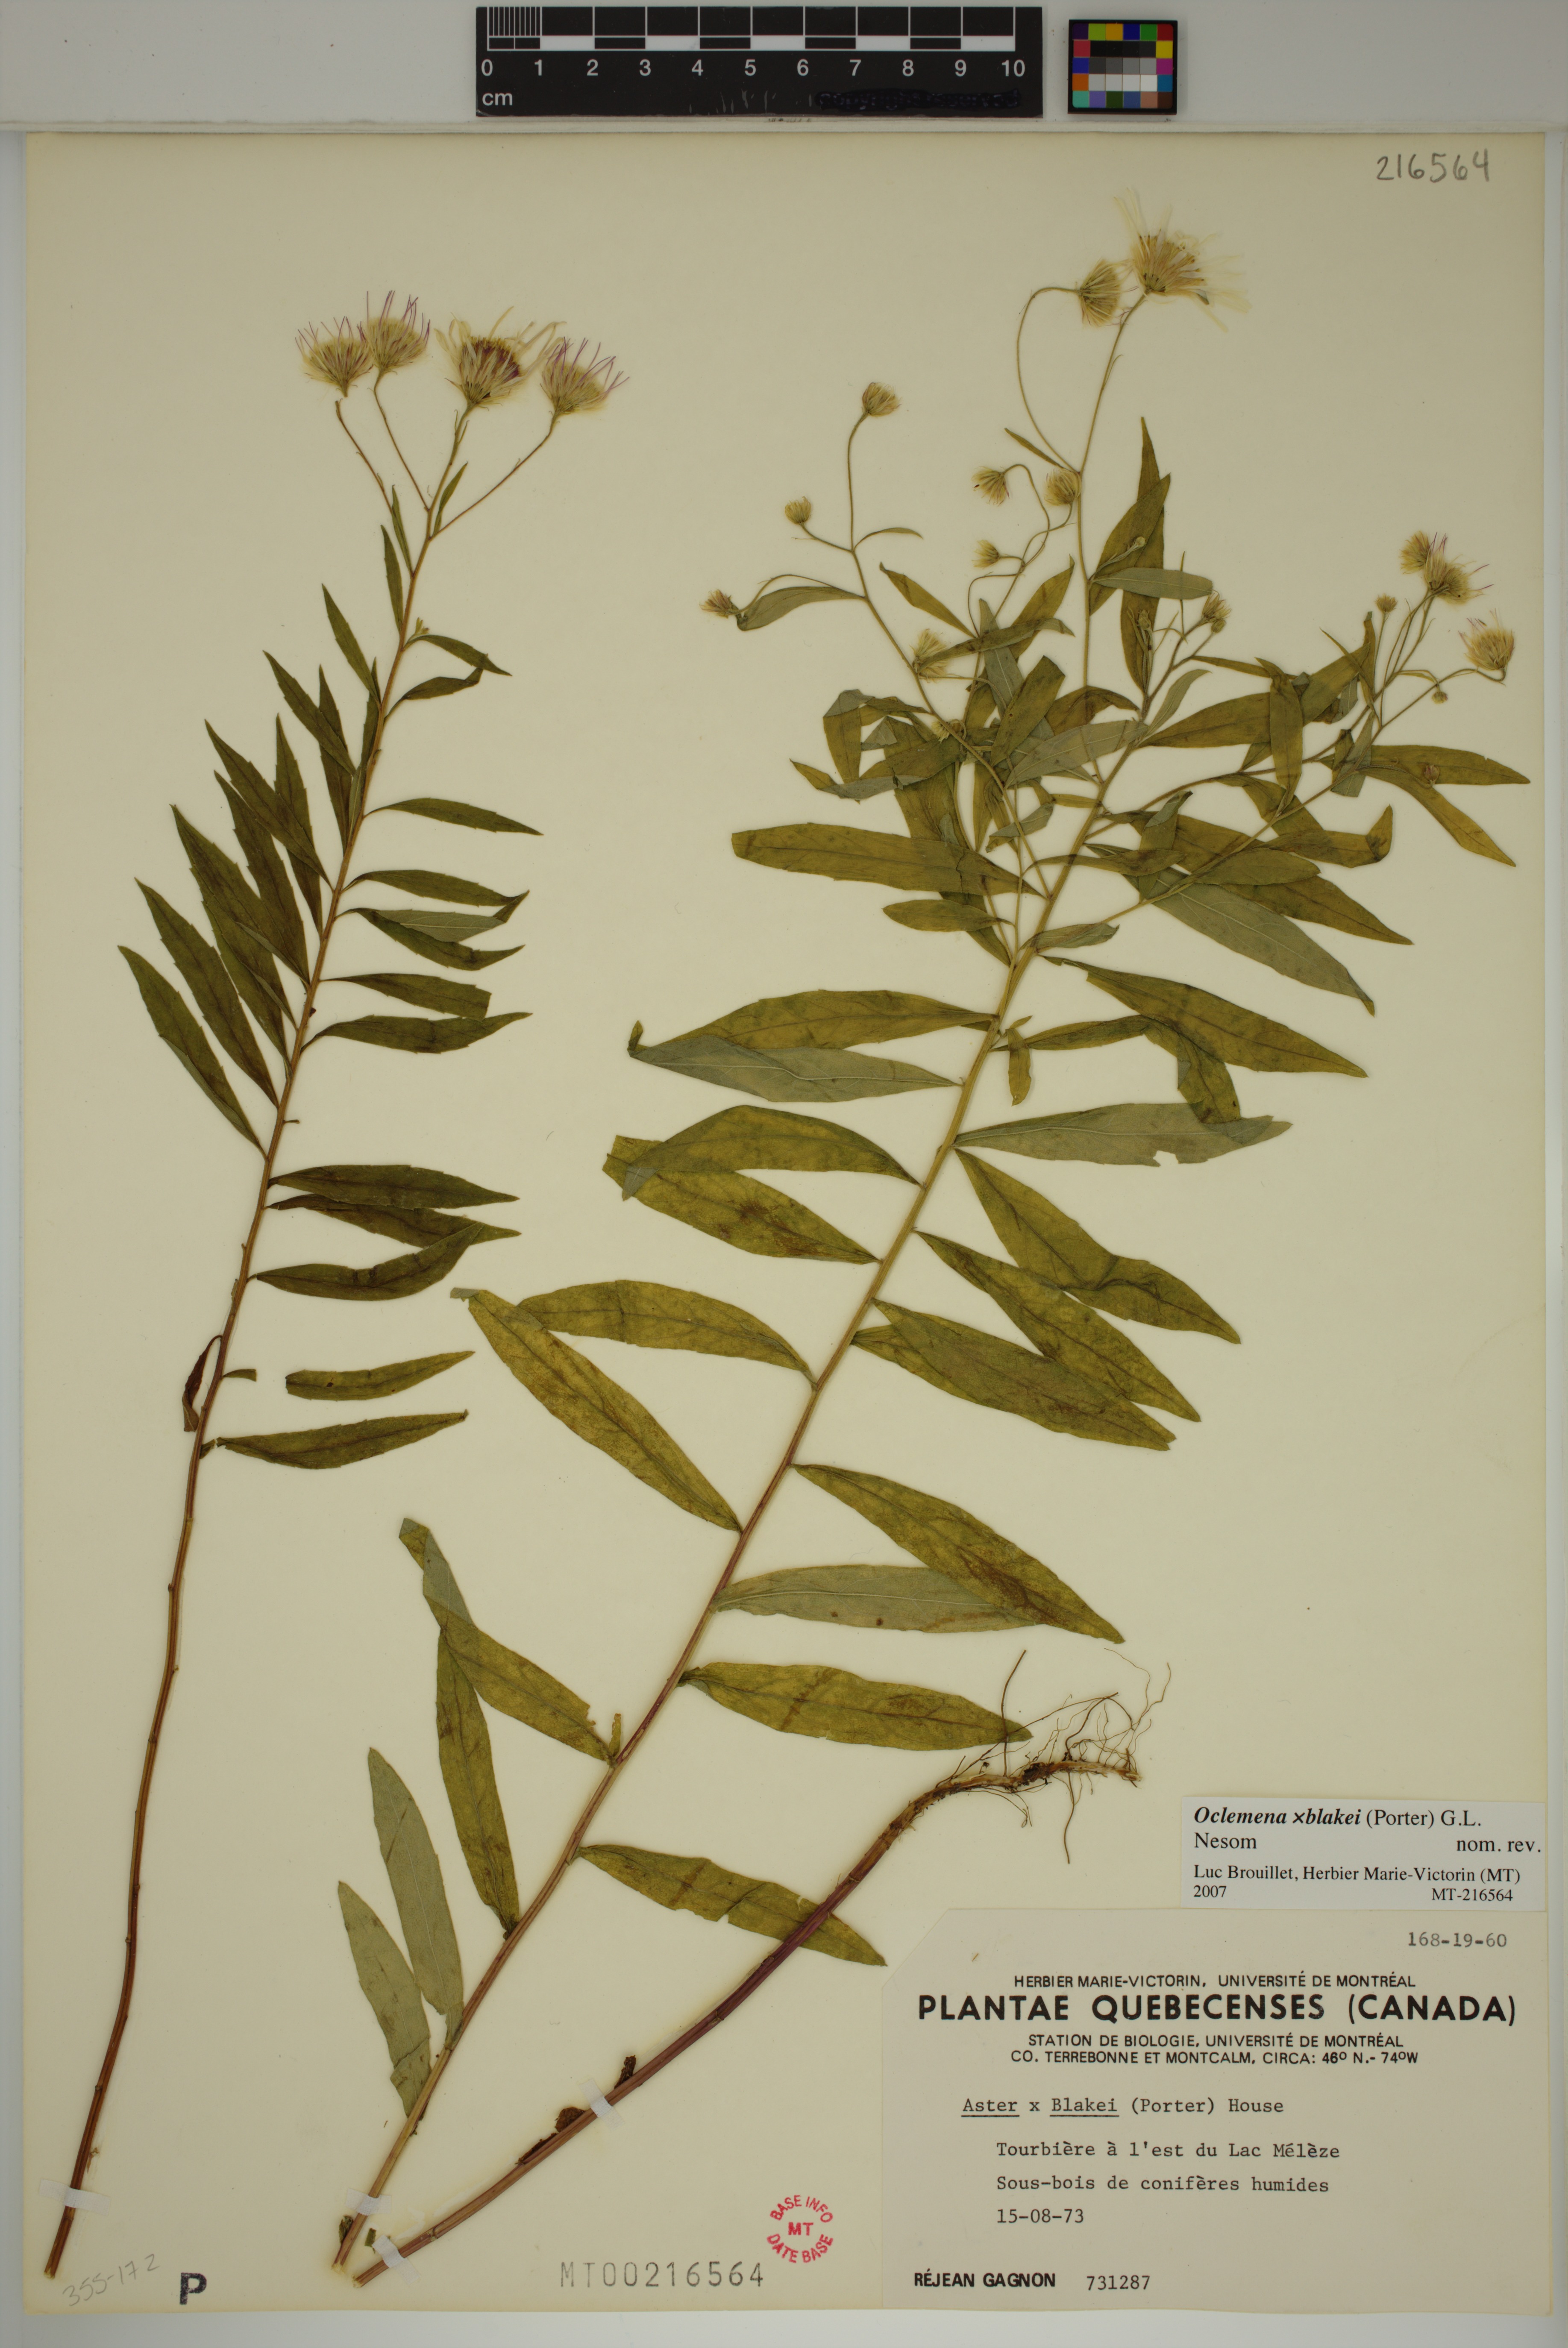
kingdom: Plantae
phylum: Tracheophyta
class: Magnoliopsida
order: Asterales
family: Asteraceae
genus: Oclemena
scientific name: Oclemena blakei
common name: Blake's aster
